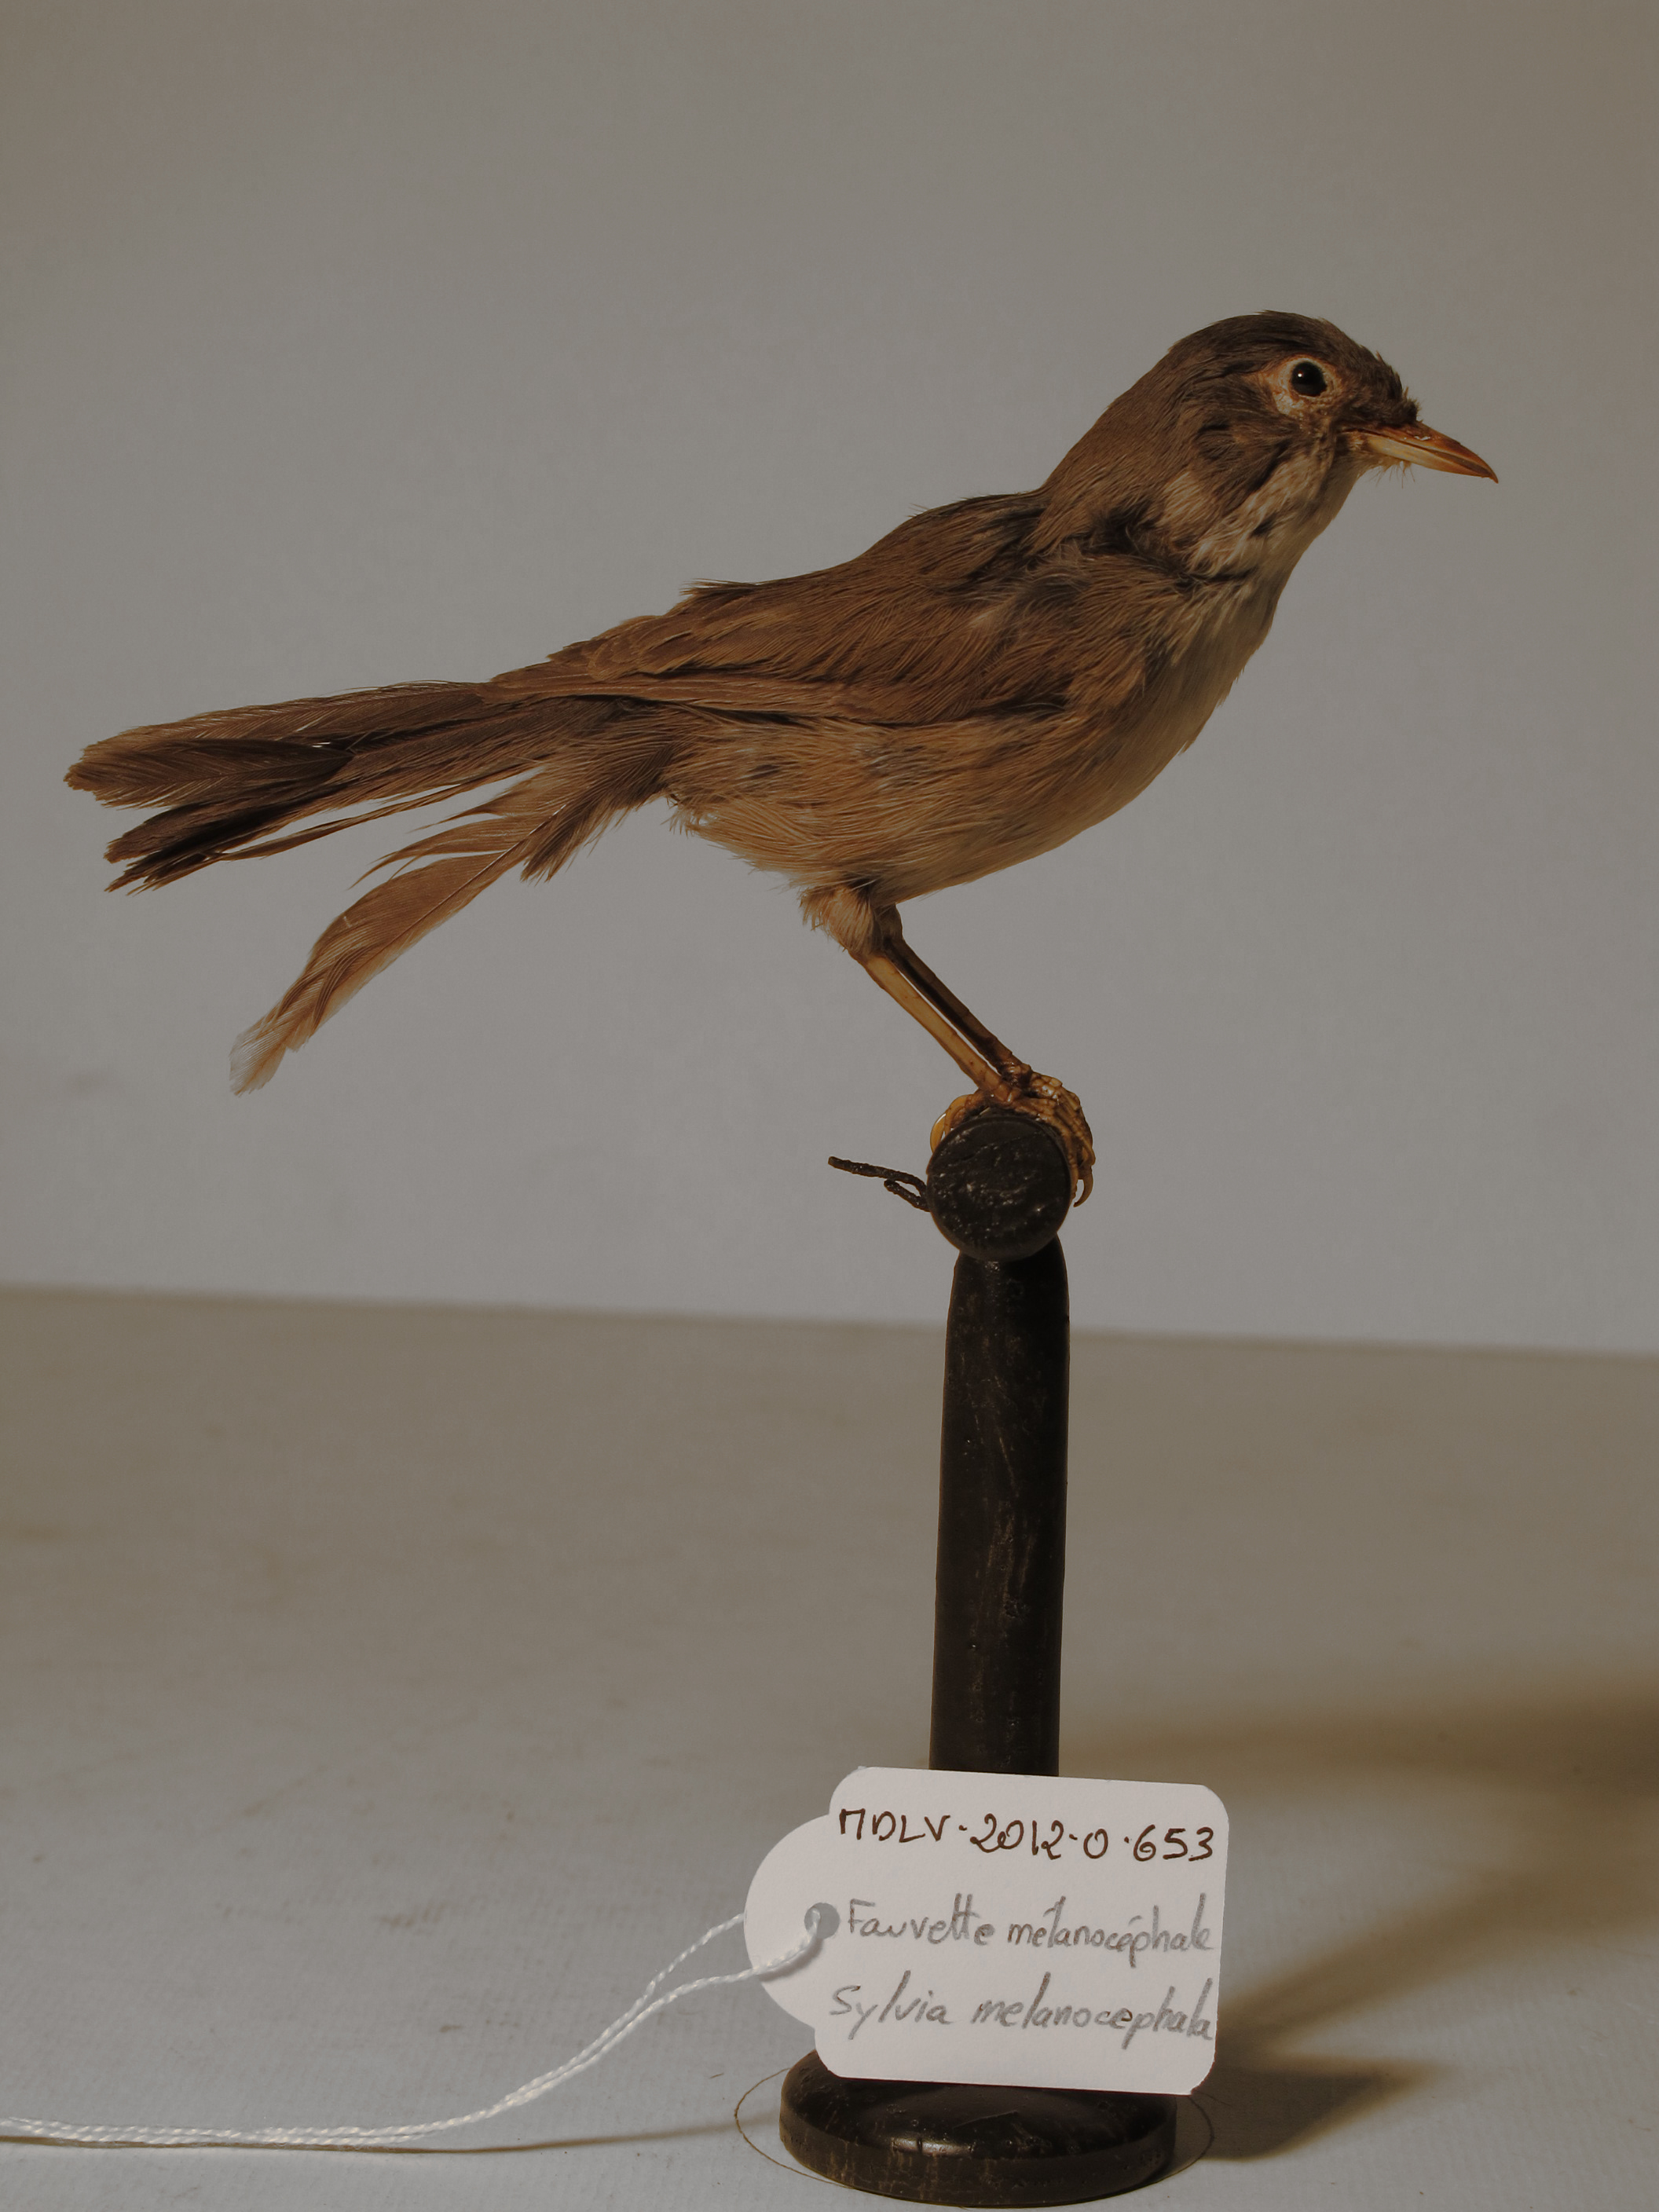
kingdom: Animalia
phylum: Chordata
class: Aves
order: Passeriformes
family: Sylviidae
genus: Sylvia
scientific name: Sylvia melanocephala
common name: Sardinian Warbler
